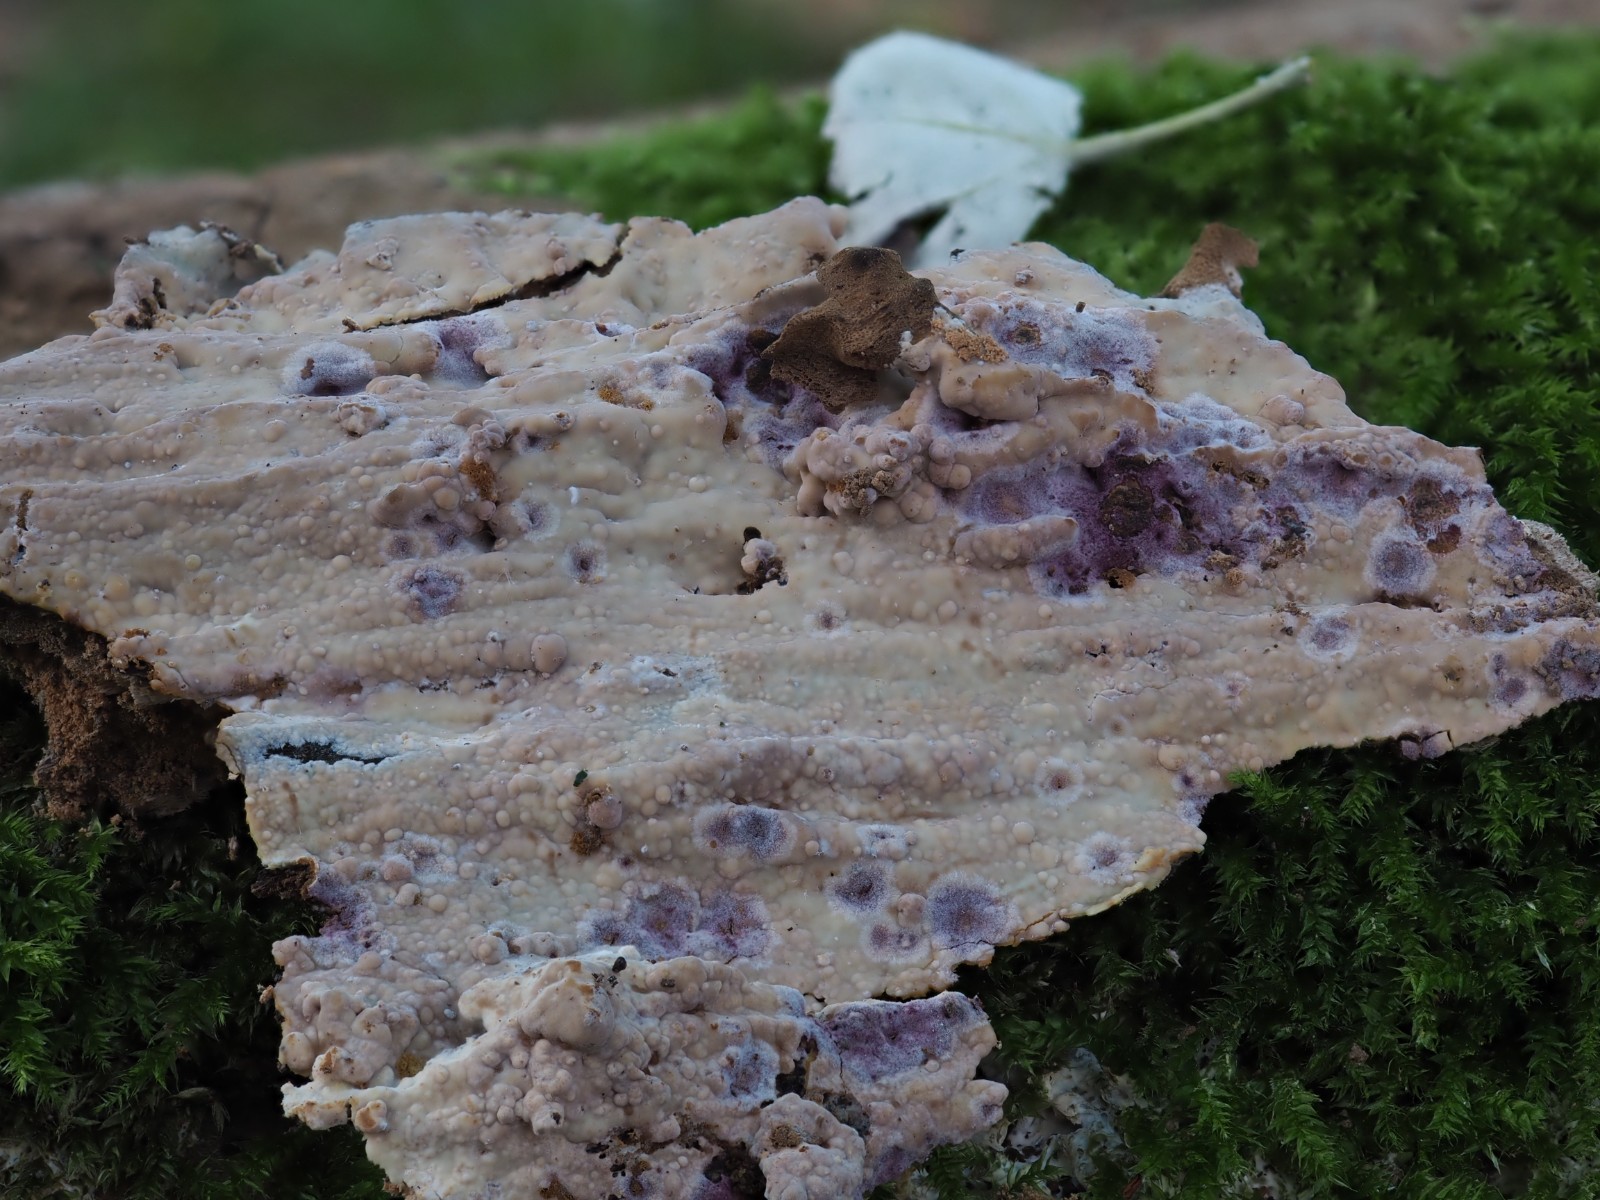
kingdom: Fungi
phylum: Basidiomycota
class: Agaricomycetes
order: Russulales
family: Peniophoraceae
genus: Gloiothele
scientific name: Gloiothele lactescens
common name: bitter olieskind
